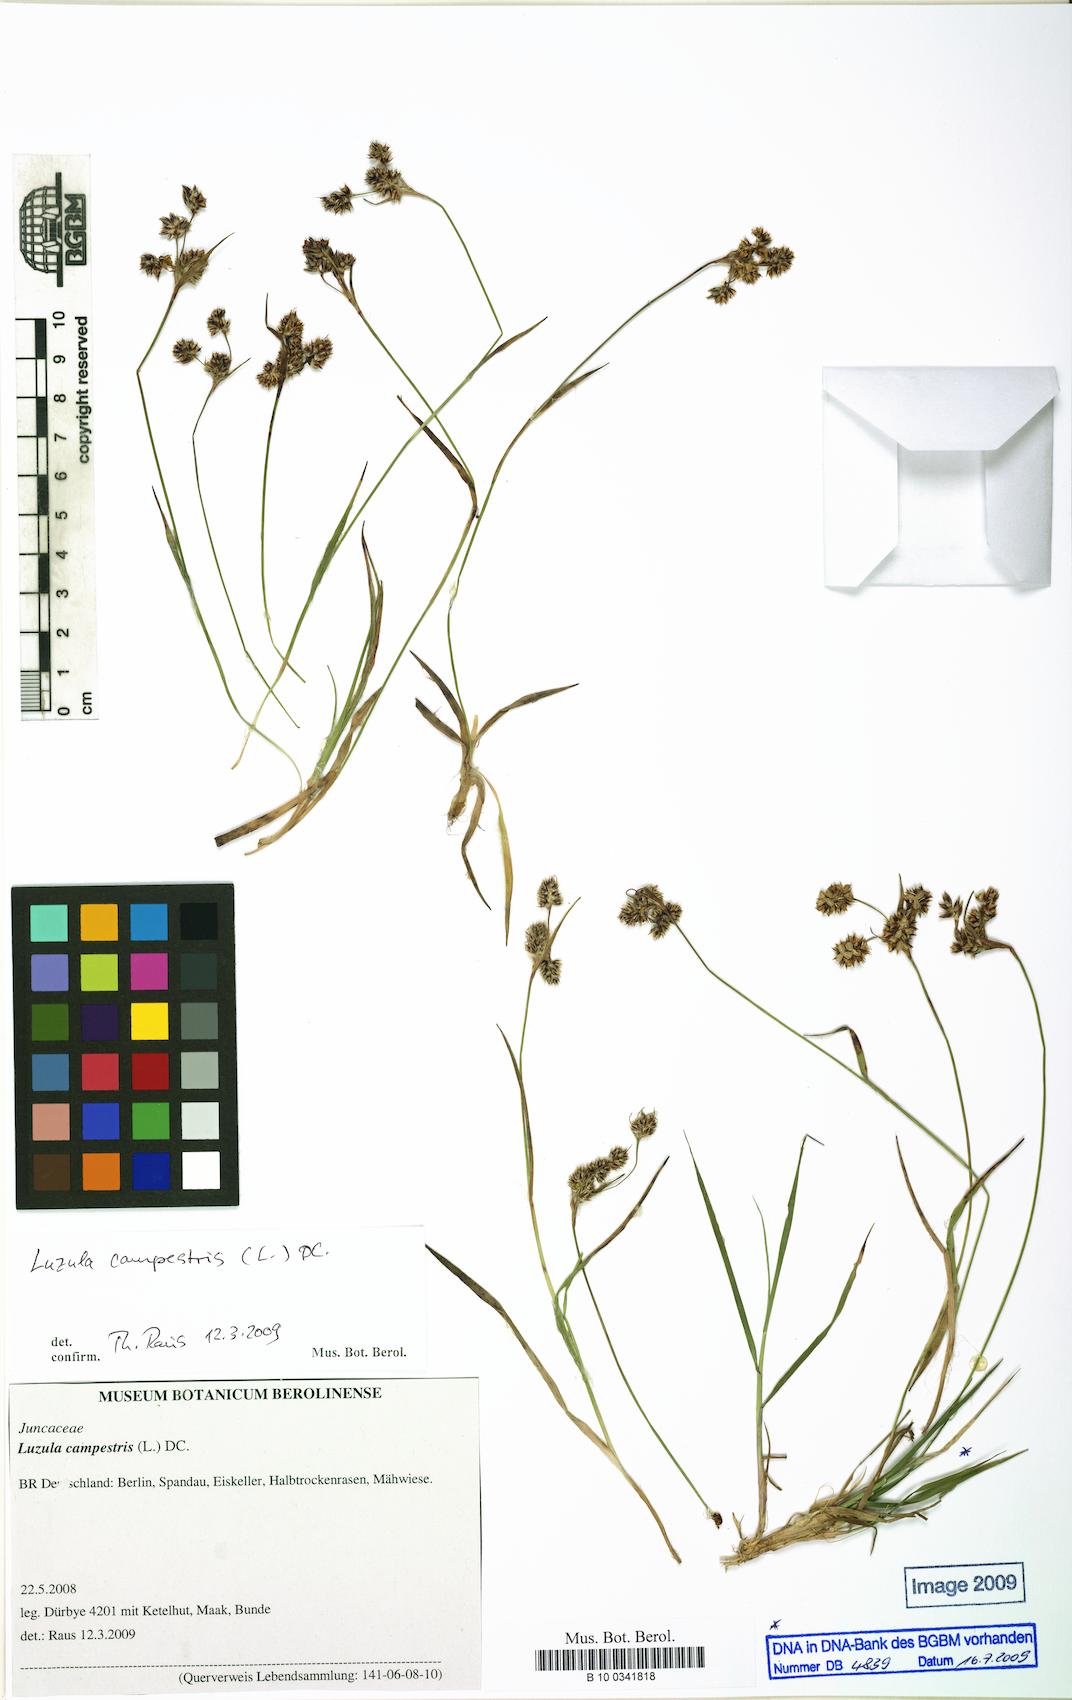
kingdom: Plantae
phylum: Tracheophyta
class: Liliopsida
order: Poales
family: Juncaceae
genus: Luzula
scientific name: Luzula campestris
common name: Field wood-rush
